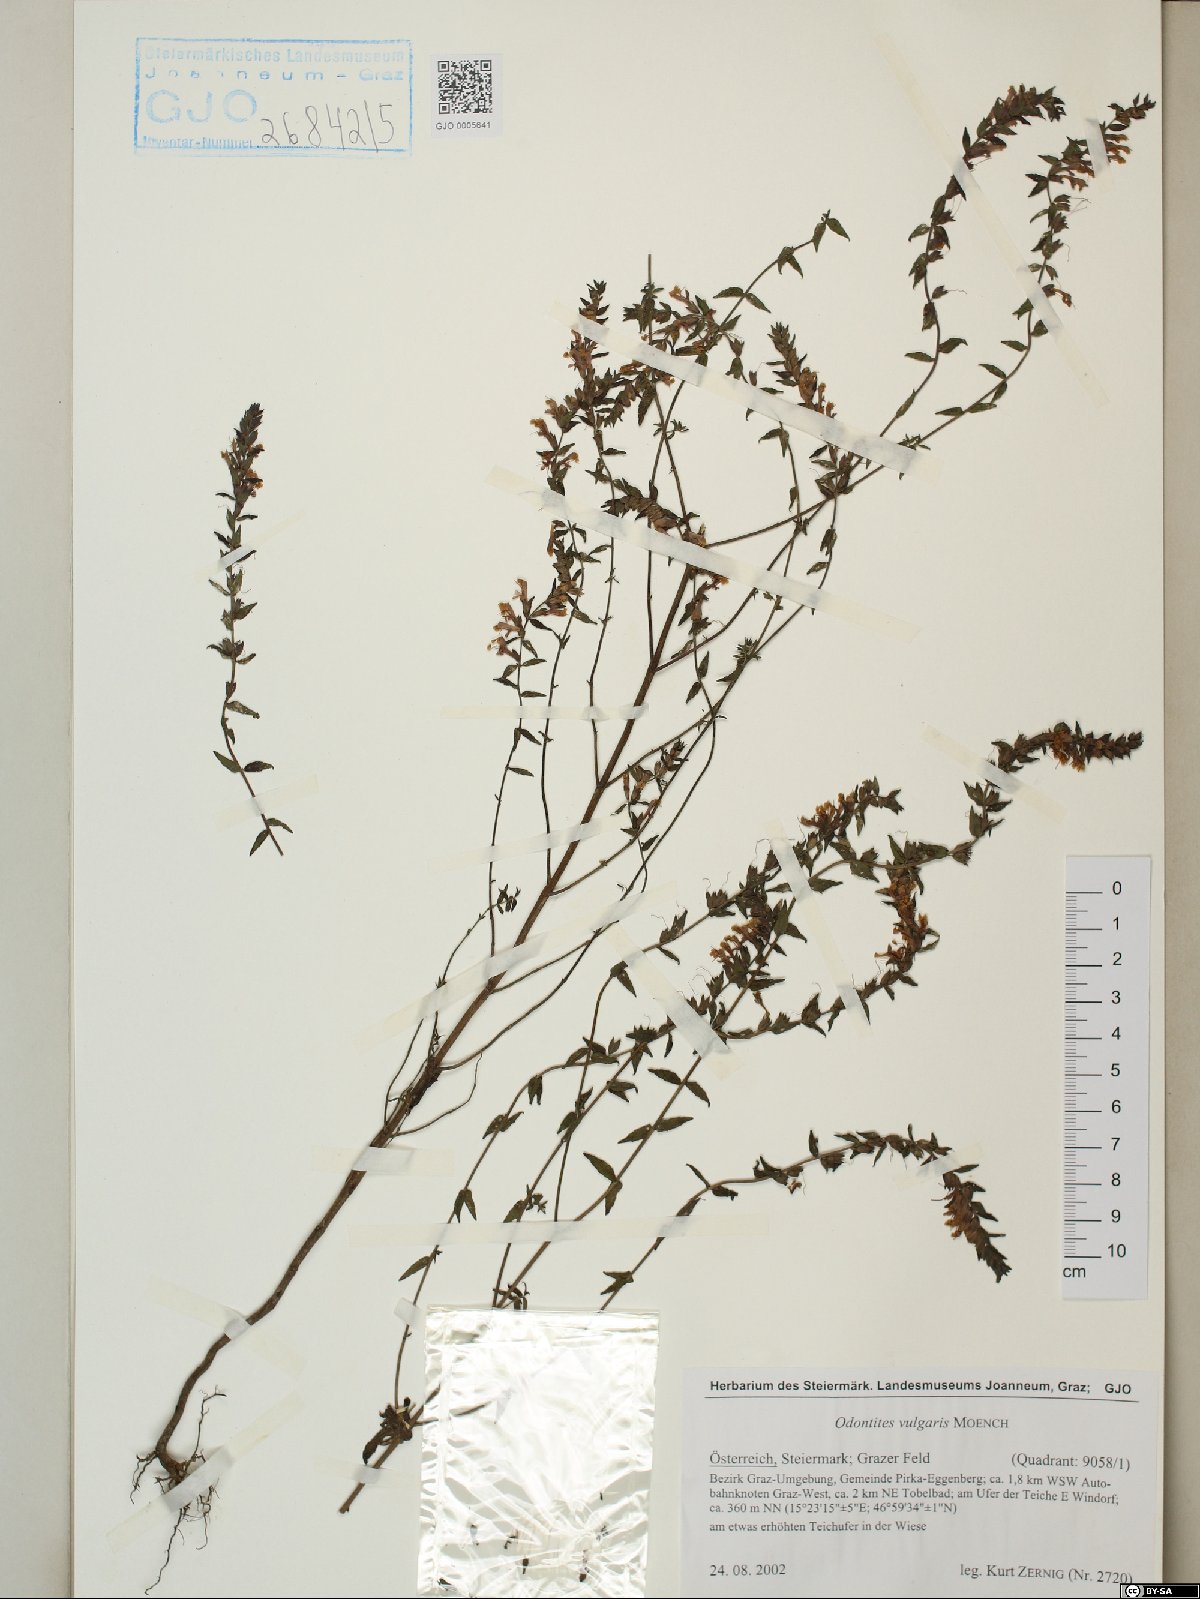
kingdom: Plantae
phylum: Tracheophyta
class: Magnoliopsida
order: Lamiales
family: Orobanchaceae
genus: Odontites
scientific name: Odontites vulgaris
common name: Broomrape
